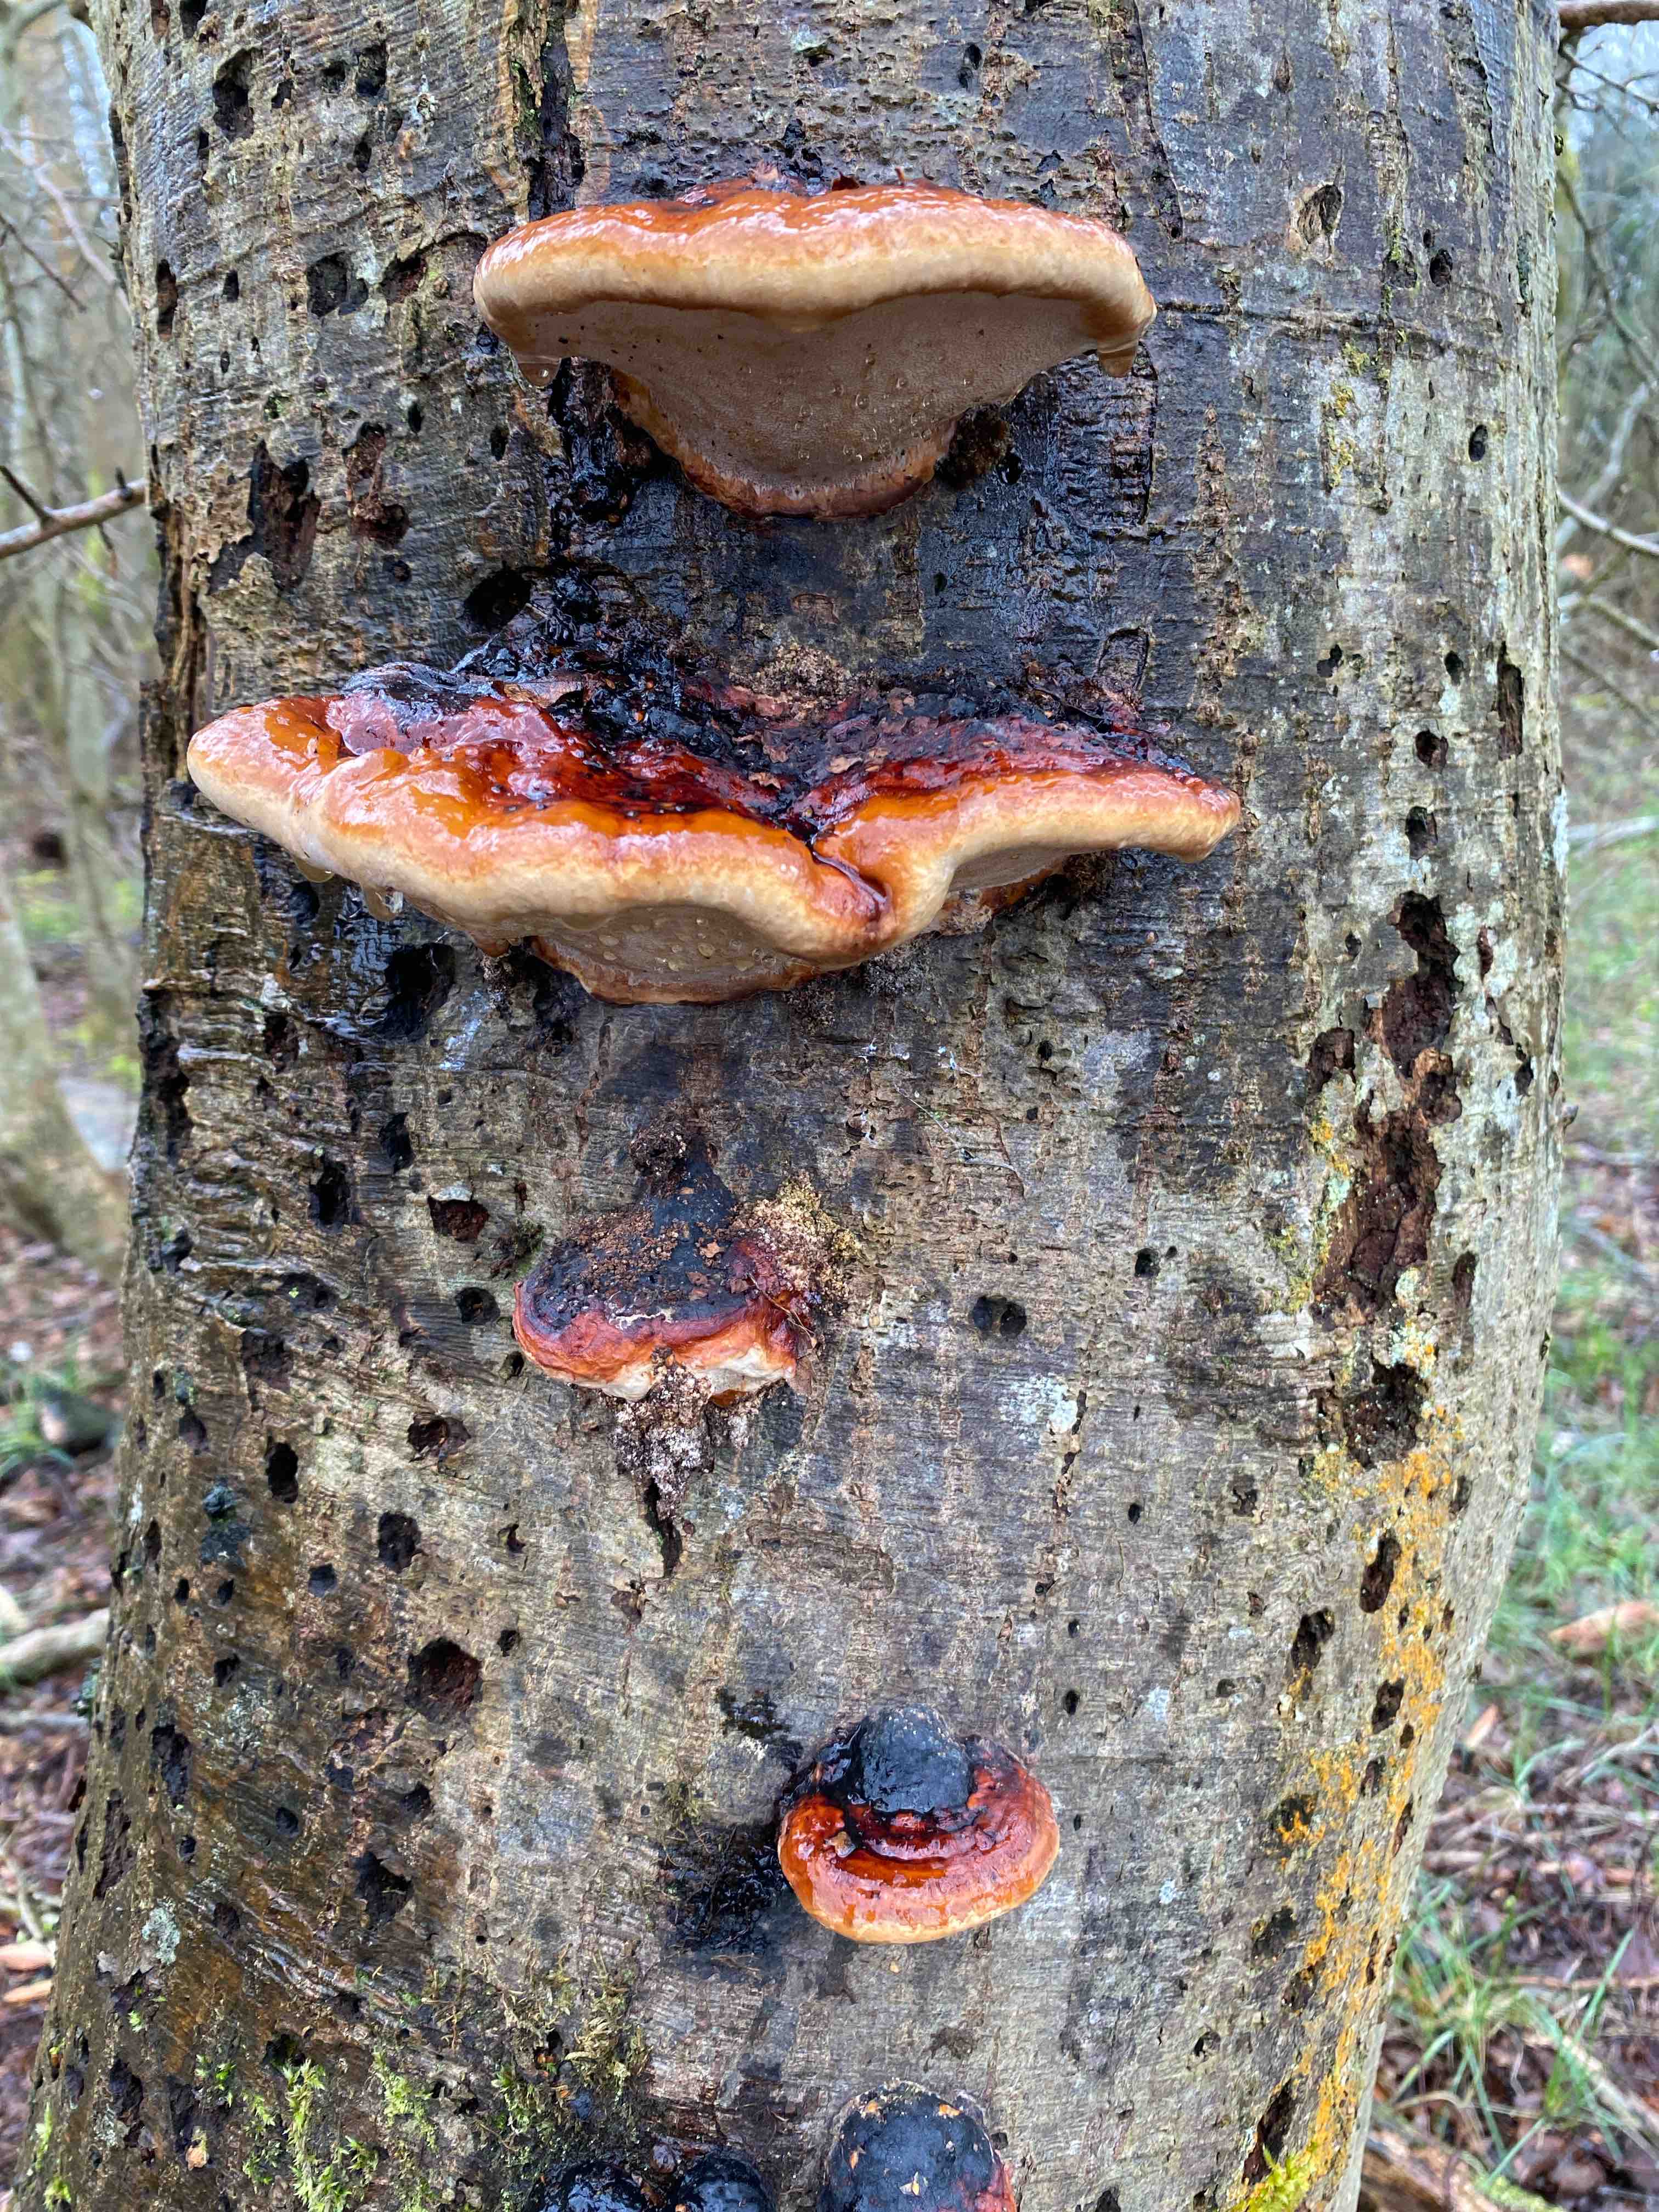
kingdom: Fungi
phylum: Basidiomycota
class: Agaricomycetes
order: Polyporales
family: Fomitopsidaceae
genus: Fomitopsis
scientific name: Fomitopsis pinicola
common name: randbæltet hovporesvamp
